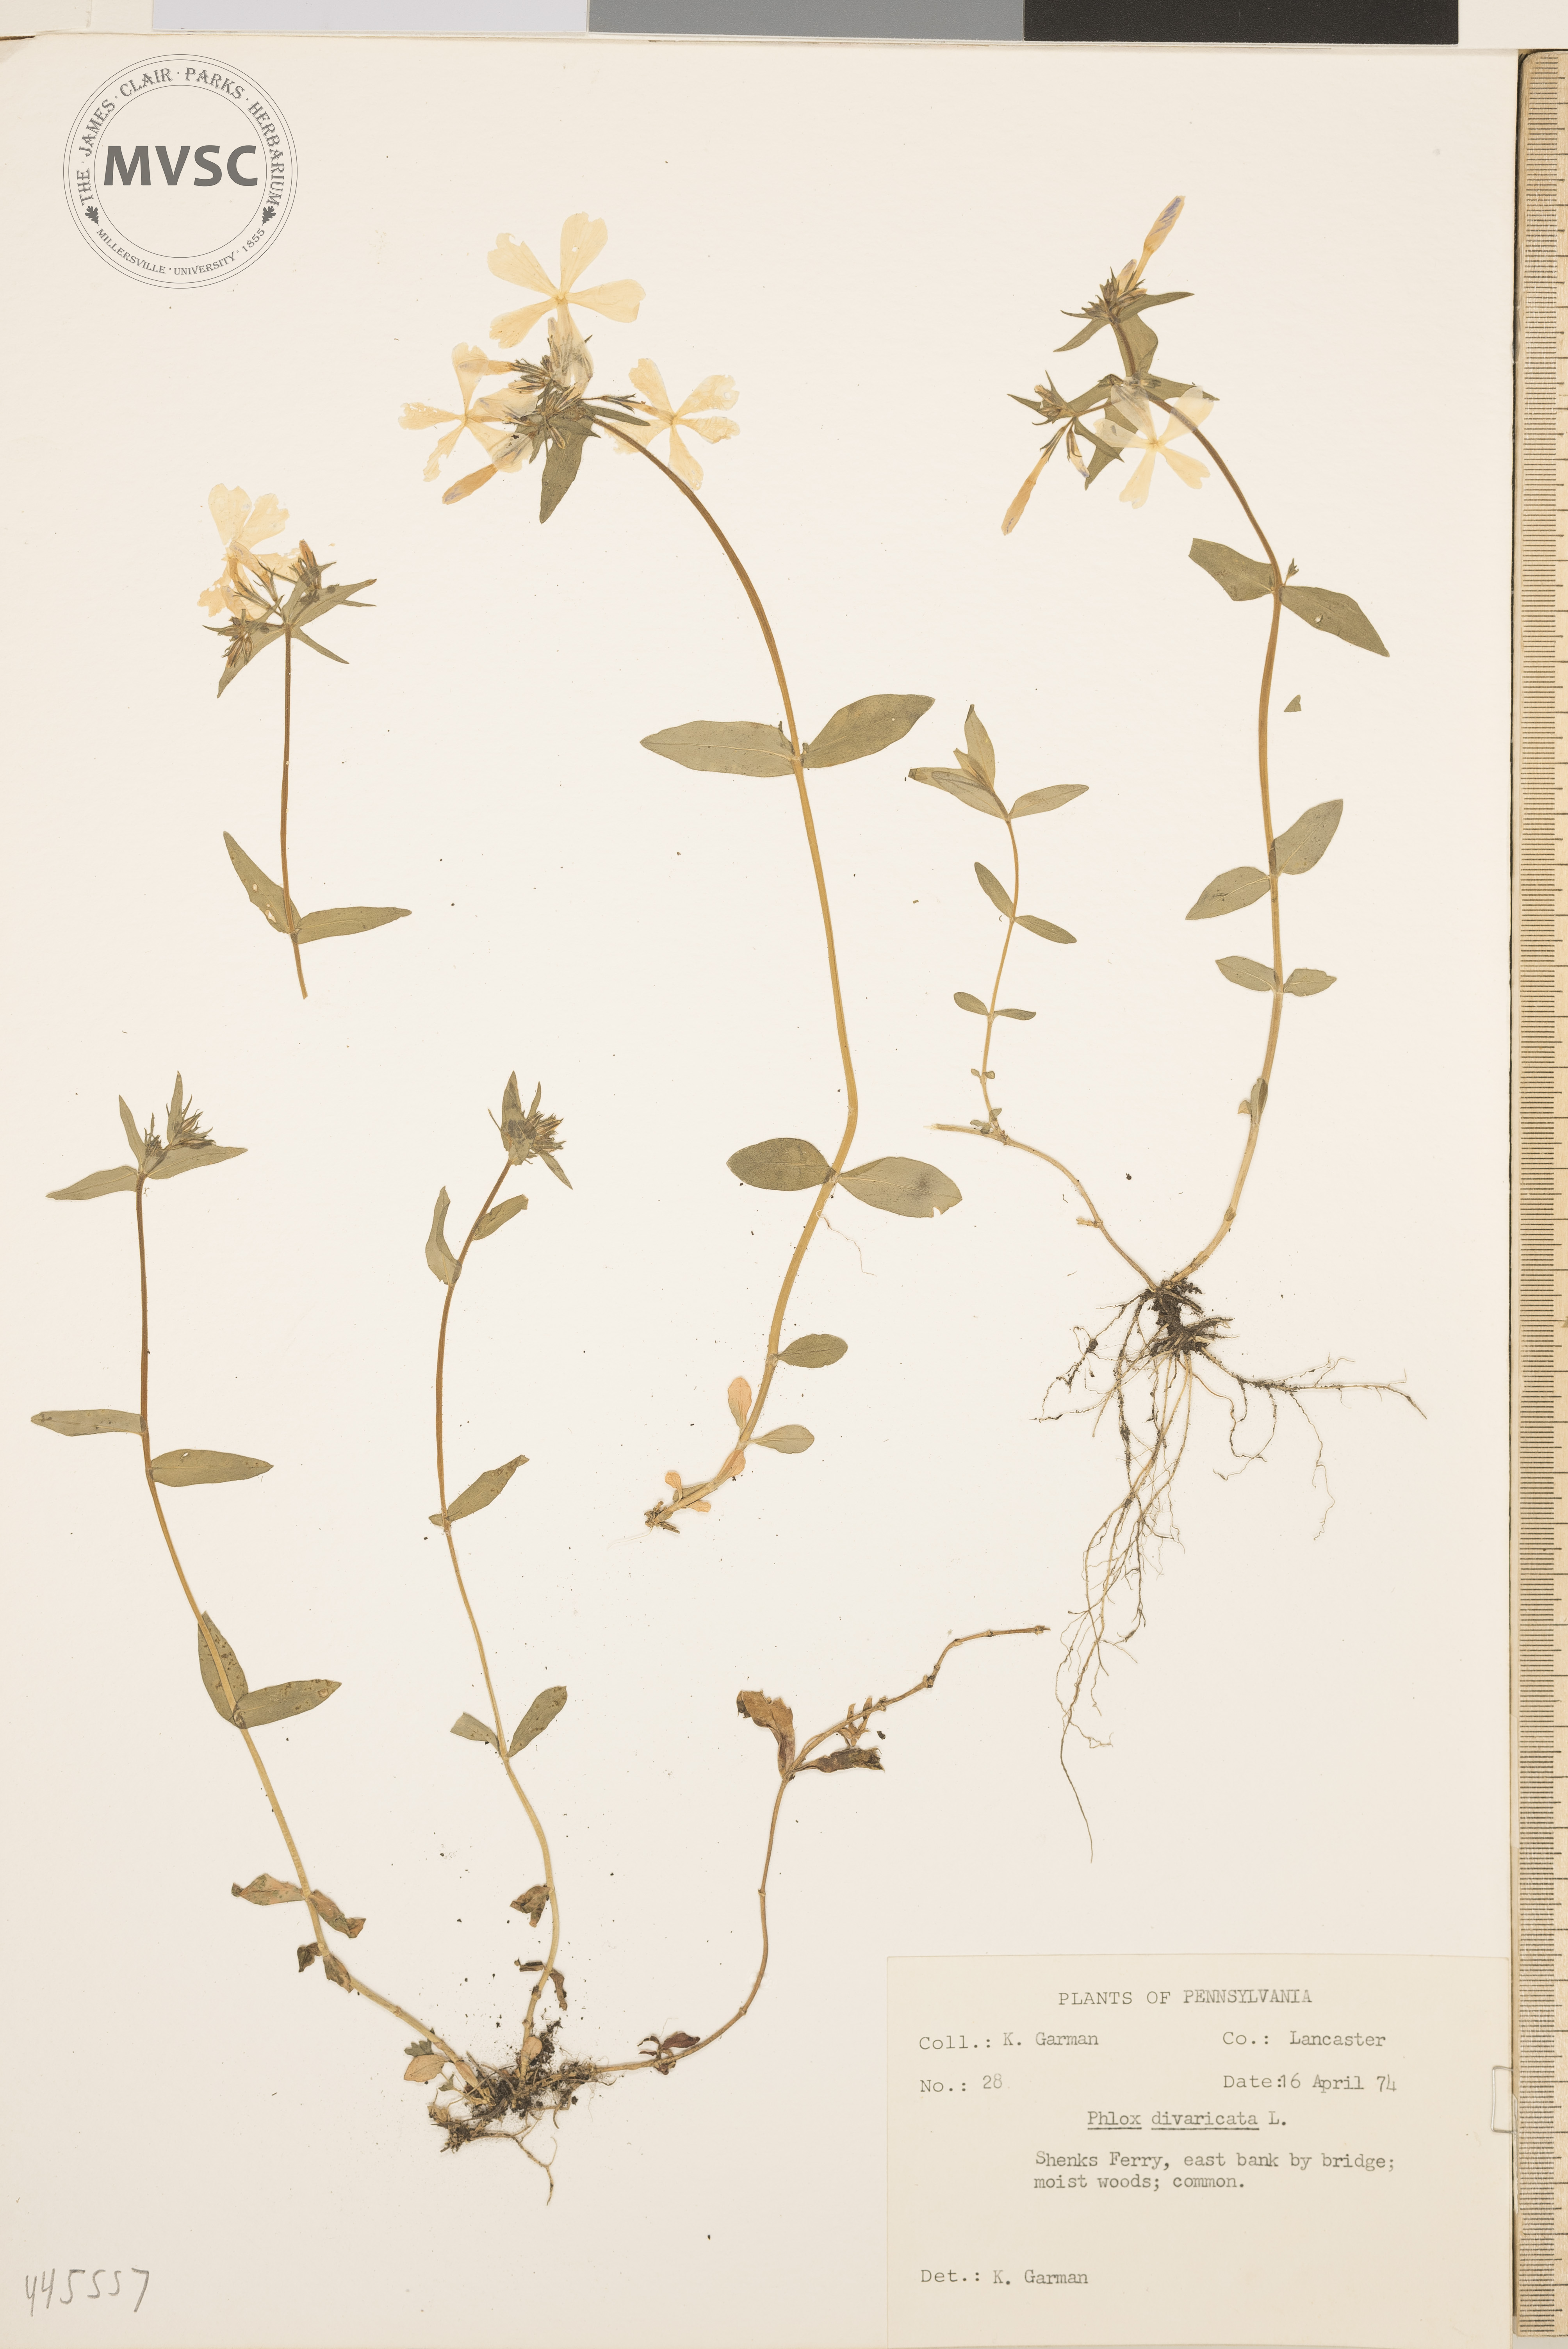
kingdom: Plantae
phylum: Tracheophyta
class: Magnoliopsida
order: Ericales
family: Polemoniaceae
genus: Phlox
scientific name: Phlox divaricata
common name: Blue phlox
